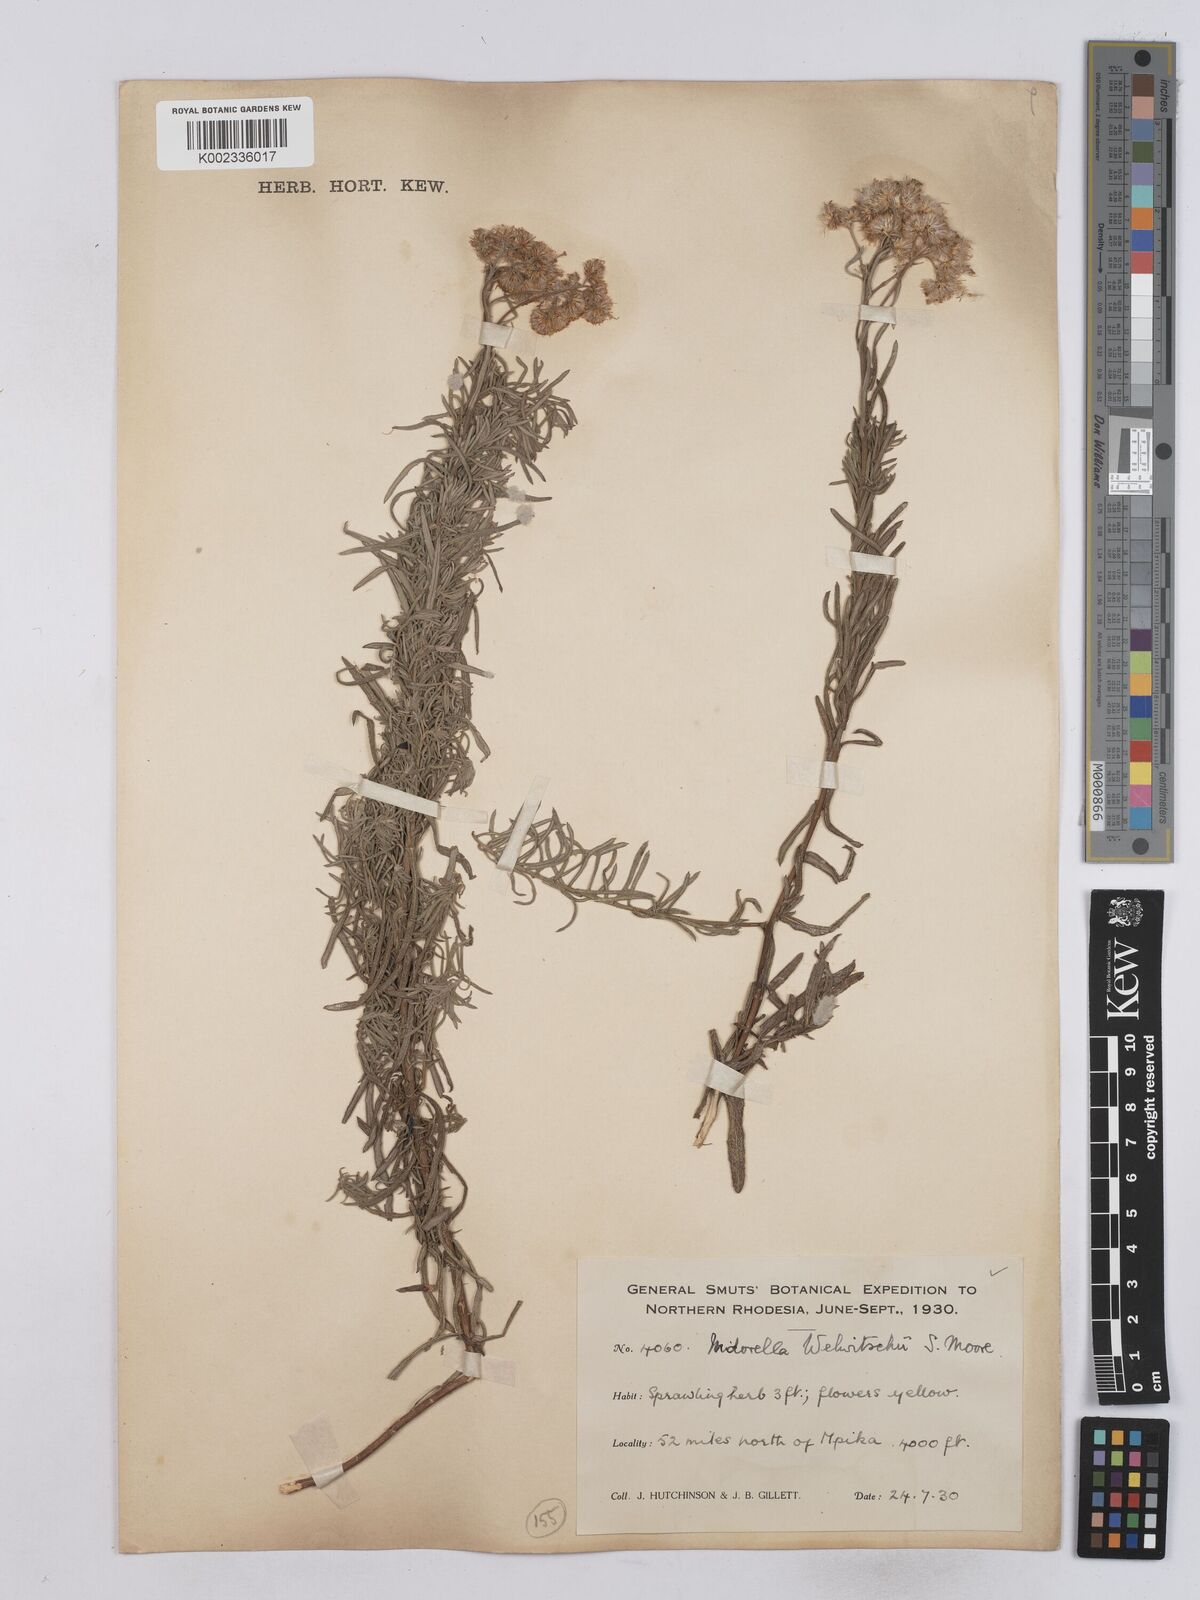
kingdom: Plantae
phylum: Tracheophyta
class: Magnoliopsida
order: Asterales
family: Asteraceae
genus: Nidorella
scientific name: Nidorella welwitschii
